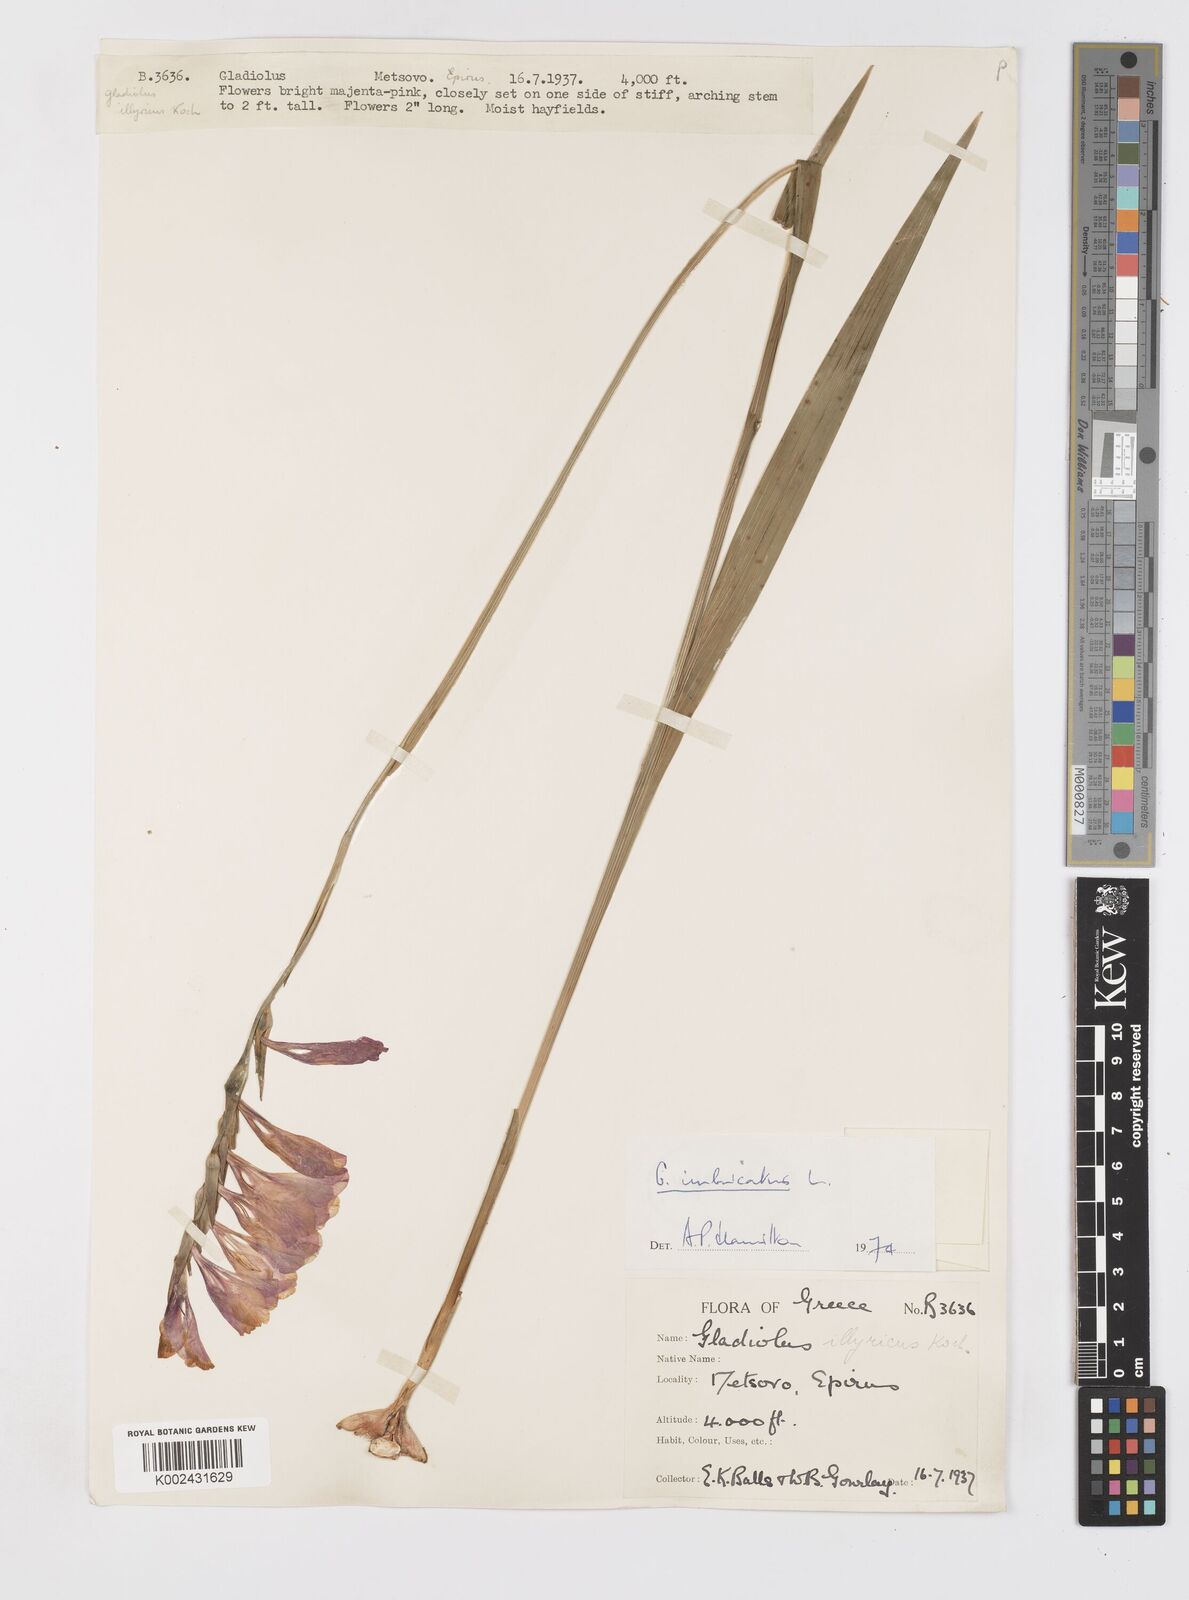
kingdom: Plantae
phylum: Tracheophyta
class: Liliopsida
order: Asparagales
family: Iridaceae
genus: Gladiolus
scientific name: Gladiolus imbricatus
